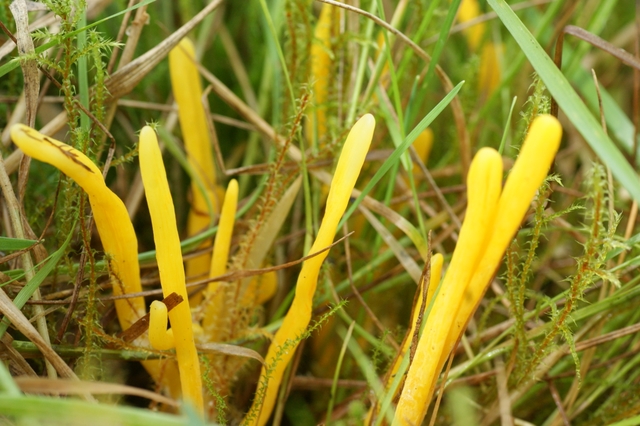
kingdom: Fungi
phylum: Basidiomycota
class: Agaricomycetes
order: Agaricales
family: Clavariaceae
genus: Clavulinopsis
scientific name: Clavulinopsis helvola
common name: orangegul køllesvamp
